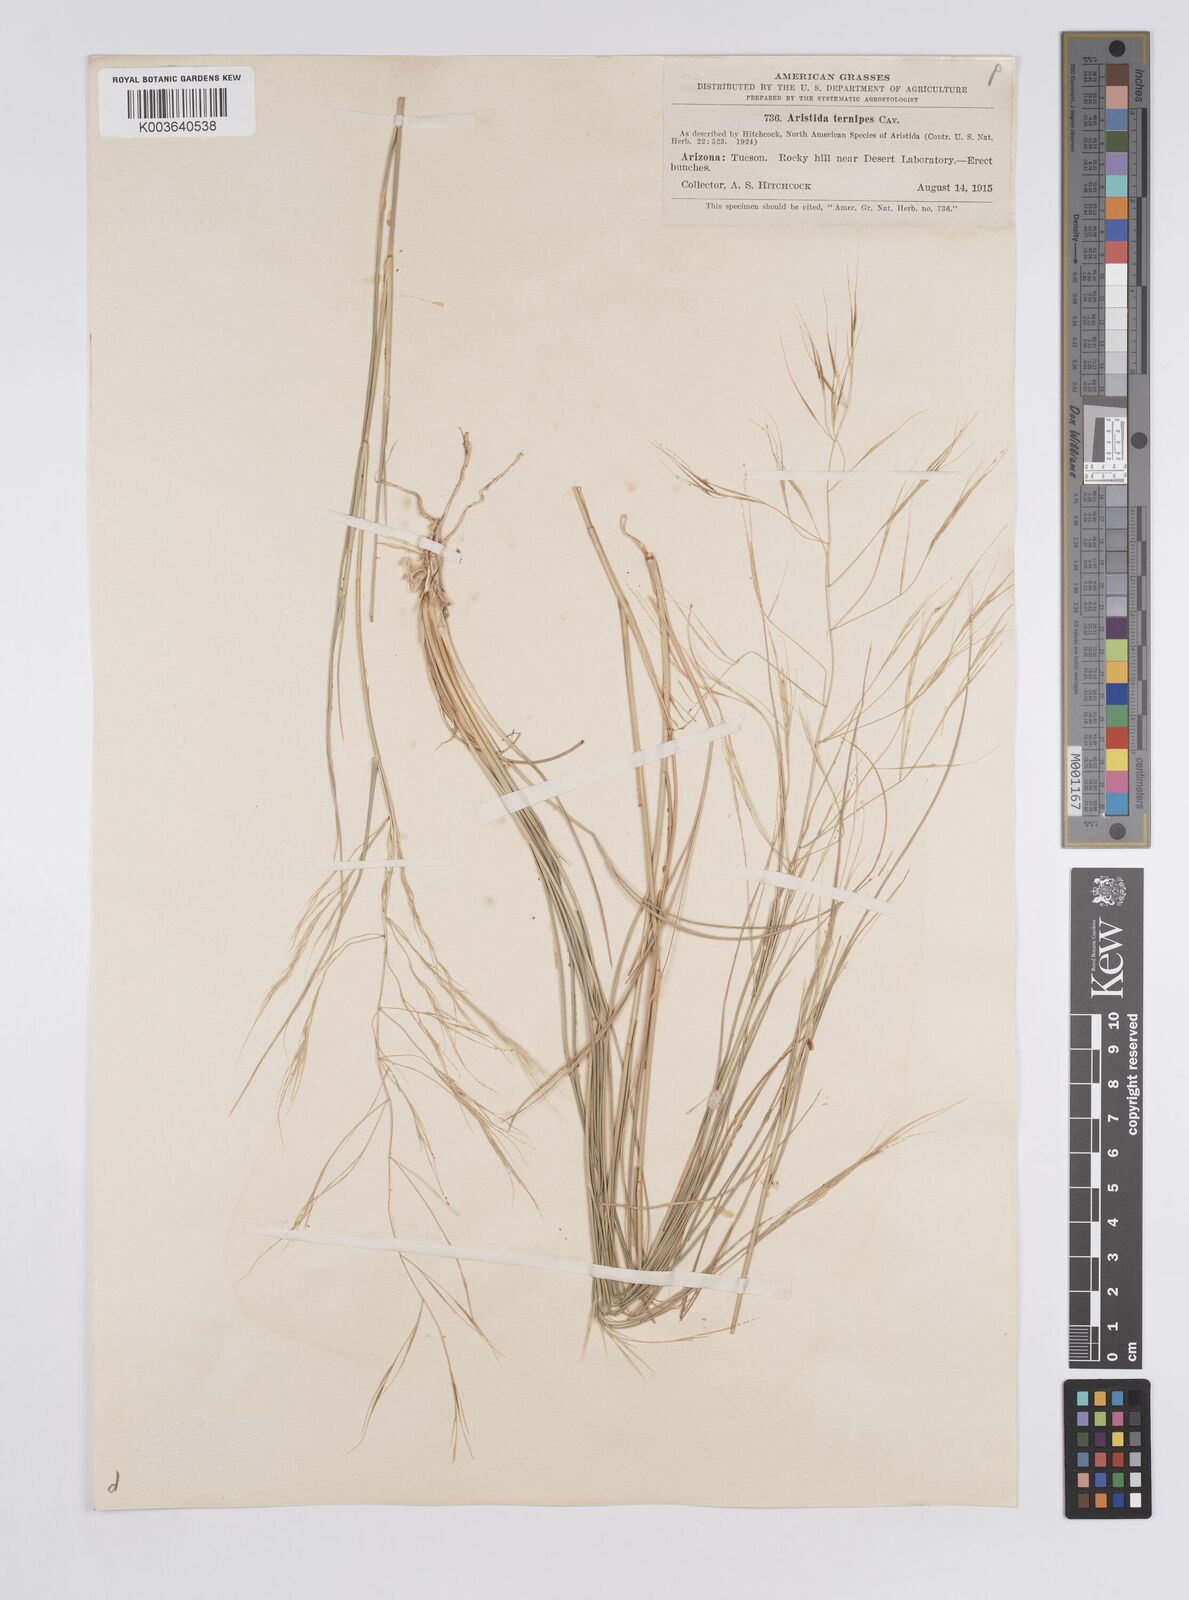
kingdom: Plantae
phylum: Tracheophyta
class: Liliopsida
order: Poales
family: Poaceae
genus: Aristida
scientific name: Aristida ternipes
